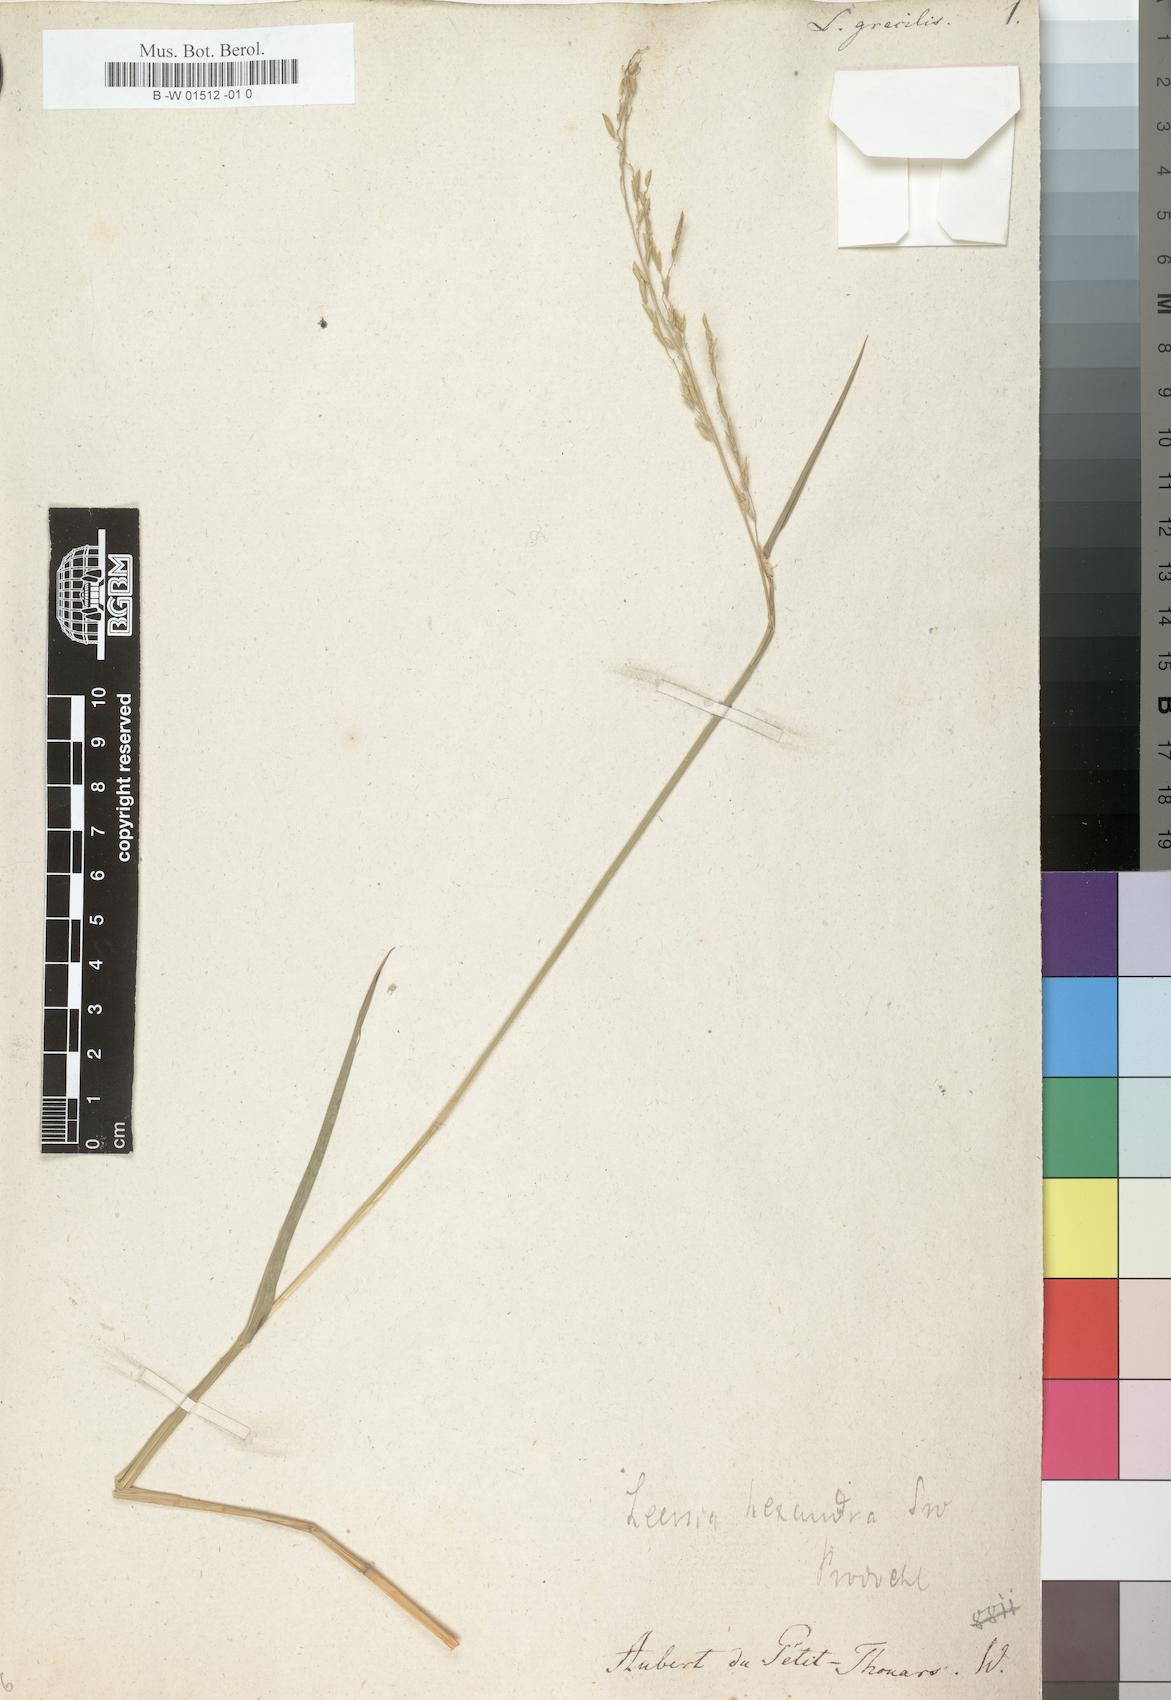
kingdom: Plantae
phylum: Tracheophyta
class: Liliopsida
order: Poales
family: Poaceae
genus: Leersia
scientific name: Leersia hexandra
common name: Southern cut grass
